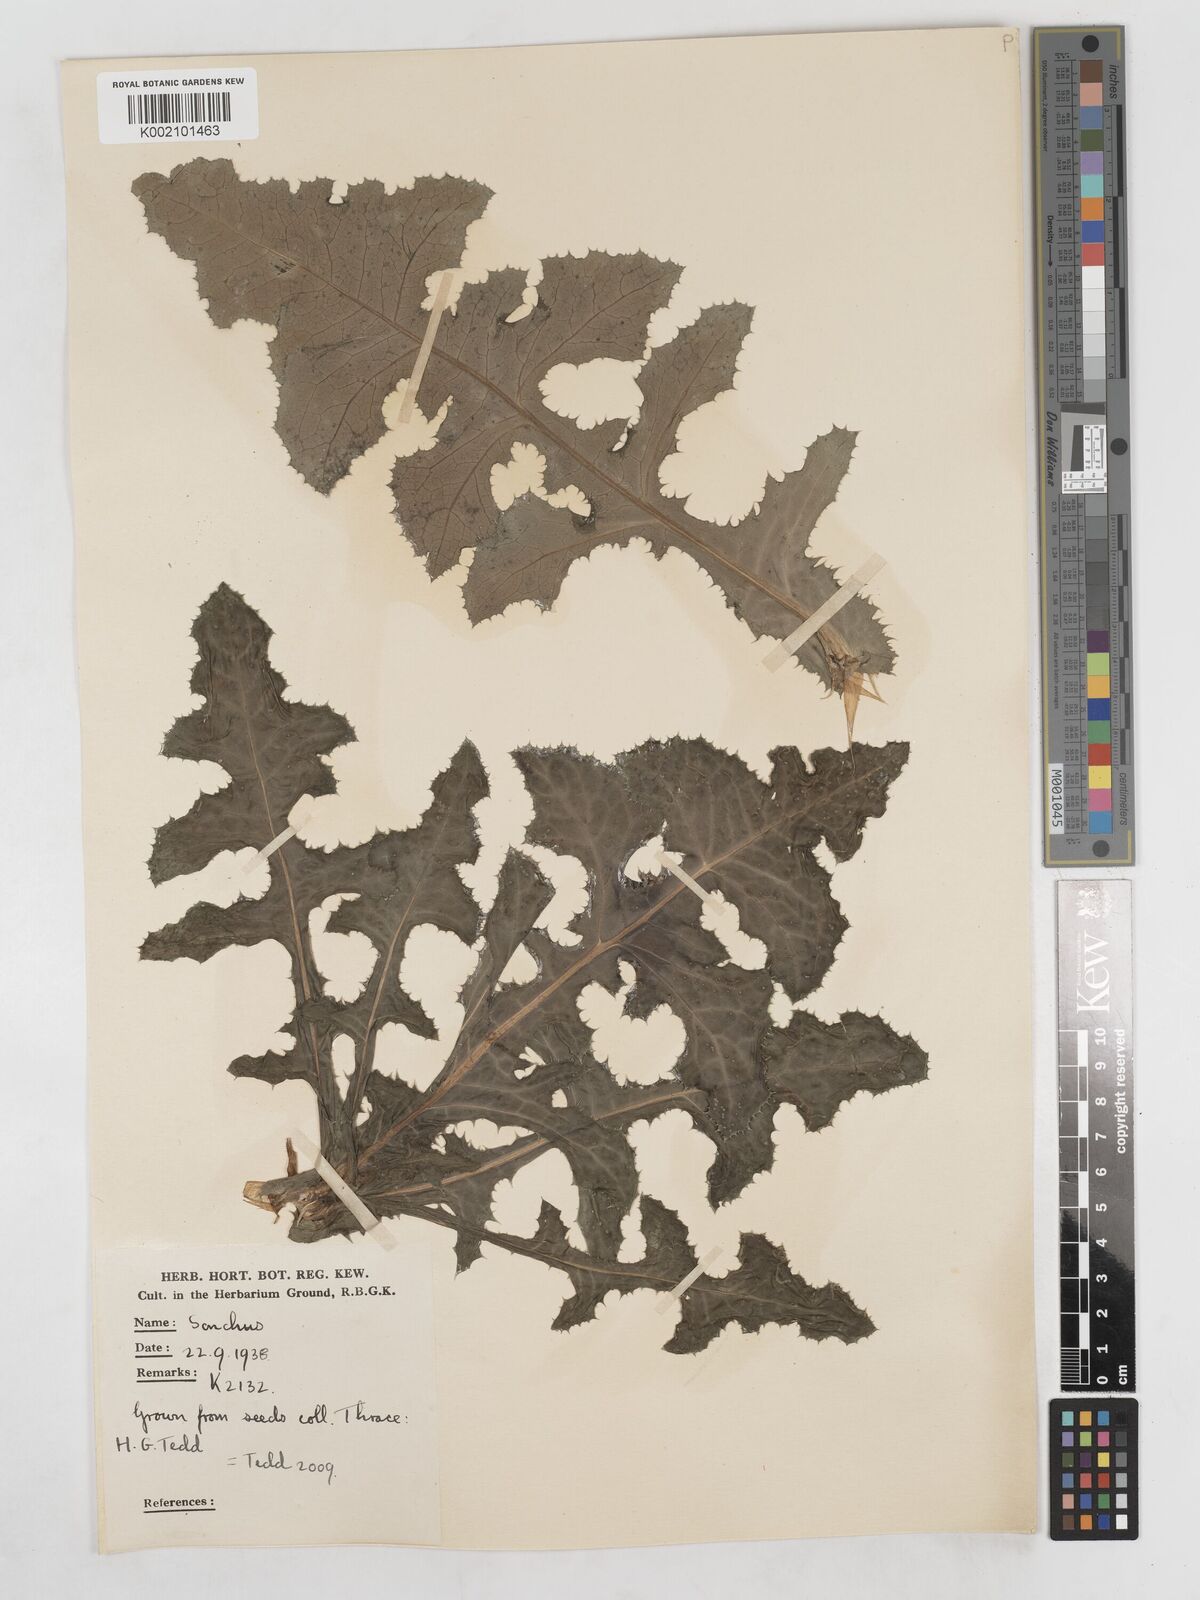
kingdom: Plantae
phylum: Tracheophyta
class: Magnoliopsida
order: Asterales
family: Asteraceae
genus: Sonchus
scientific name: Sonchus arvensis
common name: Perennial sow-thistle
